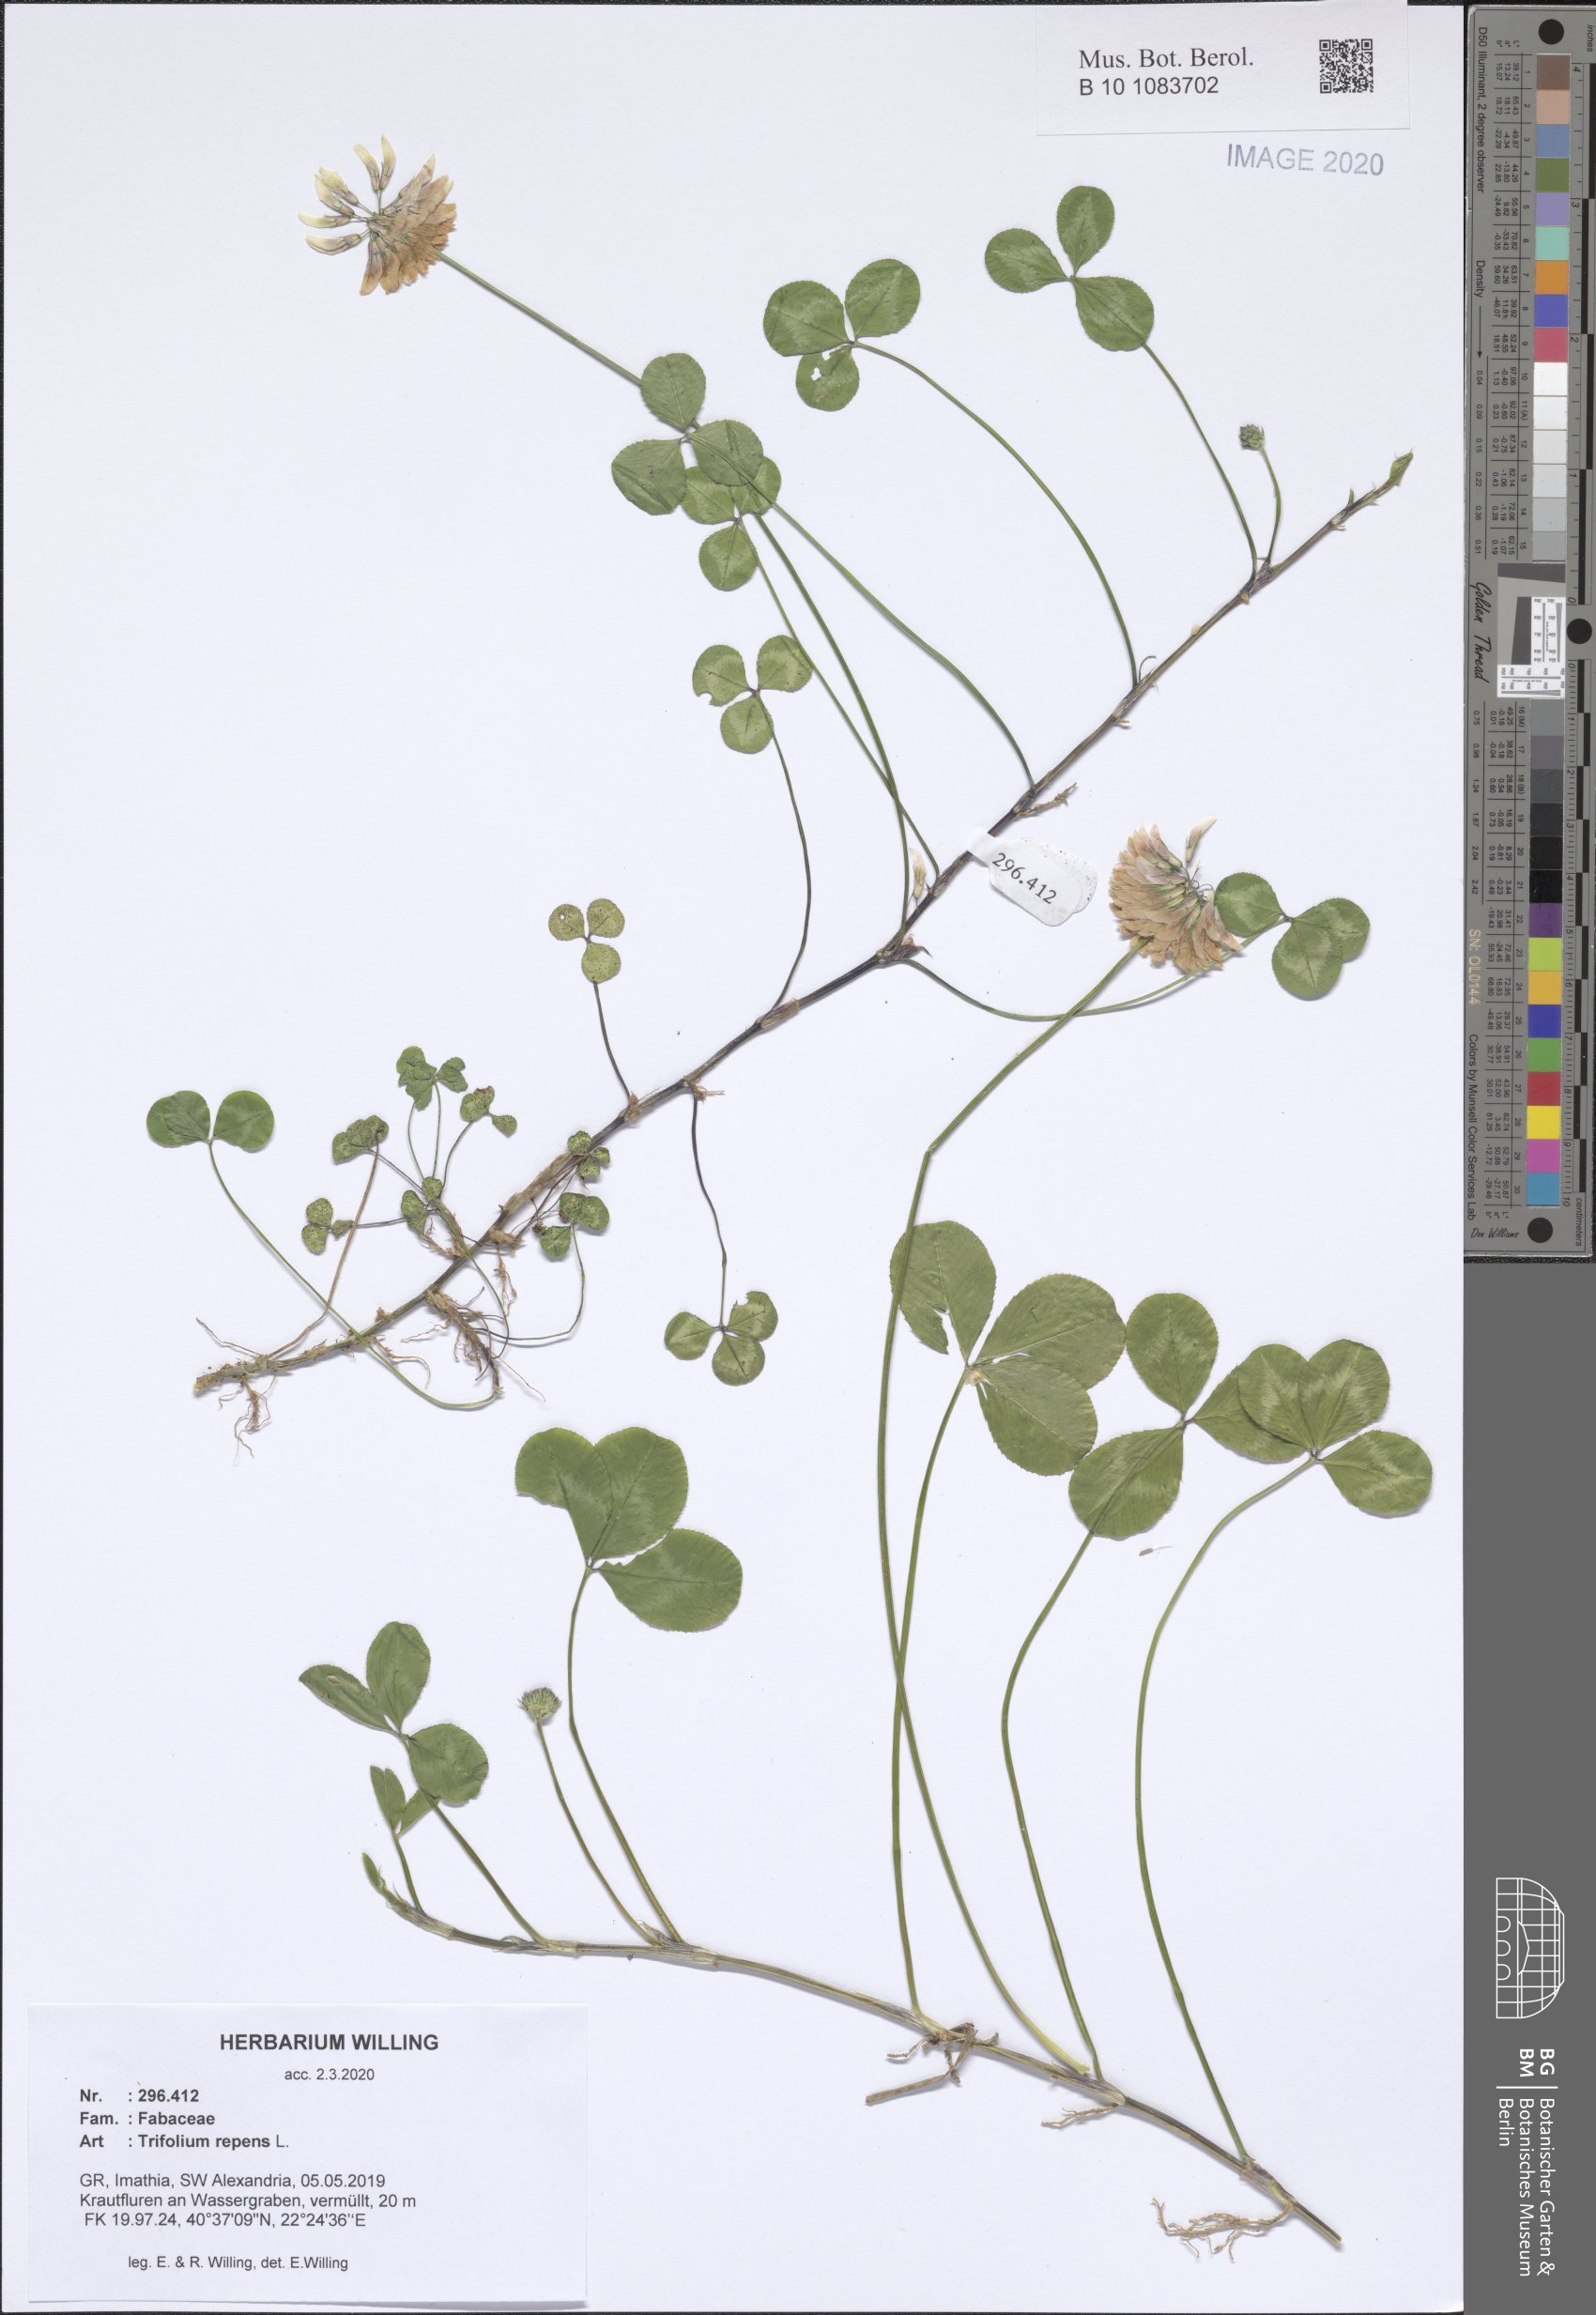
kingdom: Plantae
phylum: Tracheophyta
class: Magnoliopsida
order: Fabales
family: Fabaceae
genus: Trifolium
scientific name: Trifolium repens
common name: White clover
